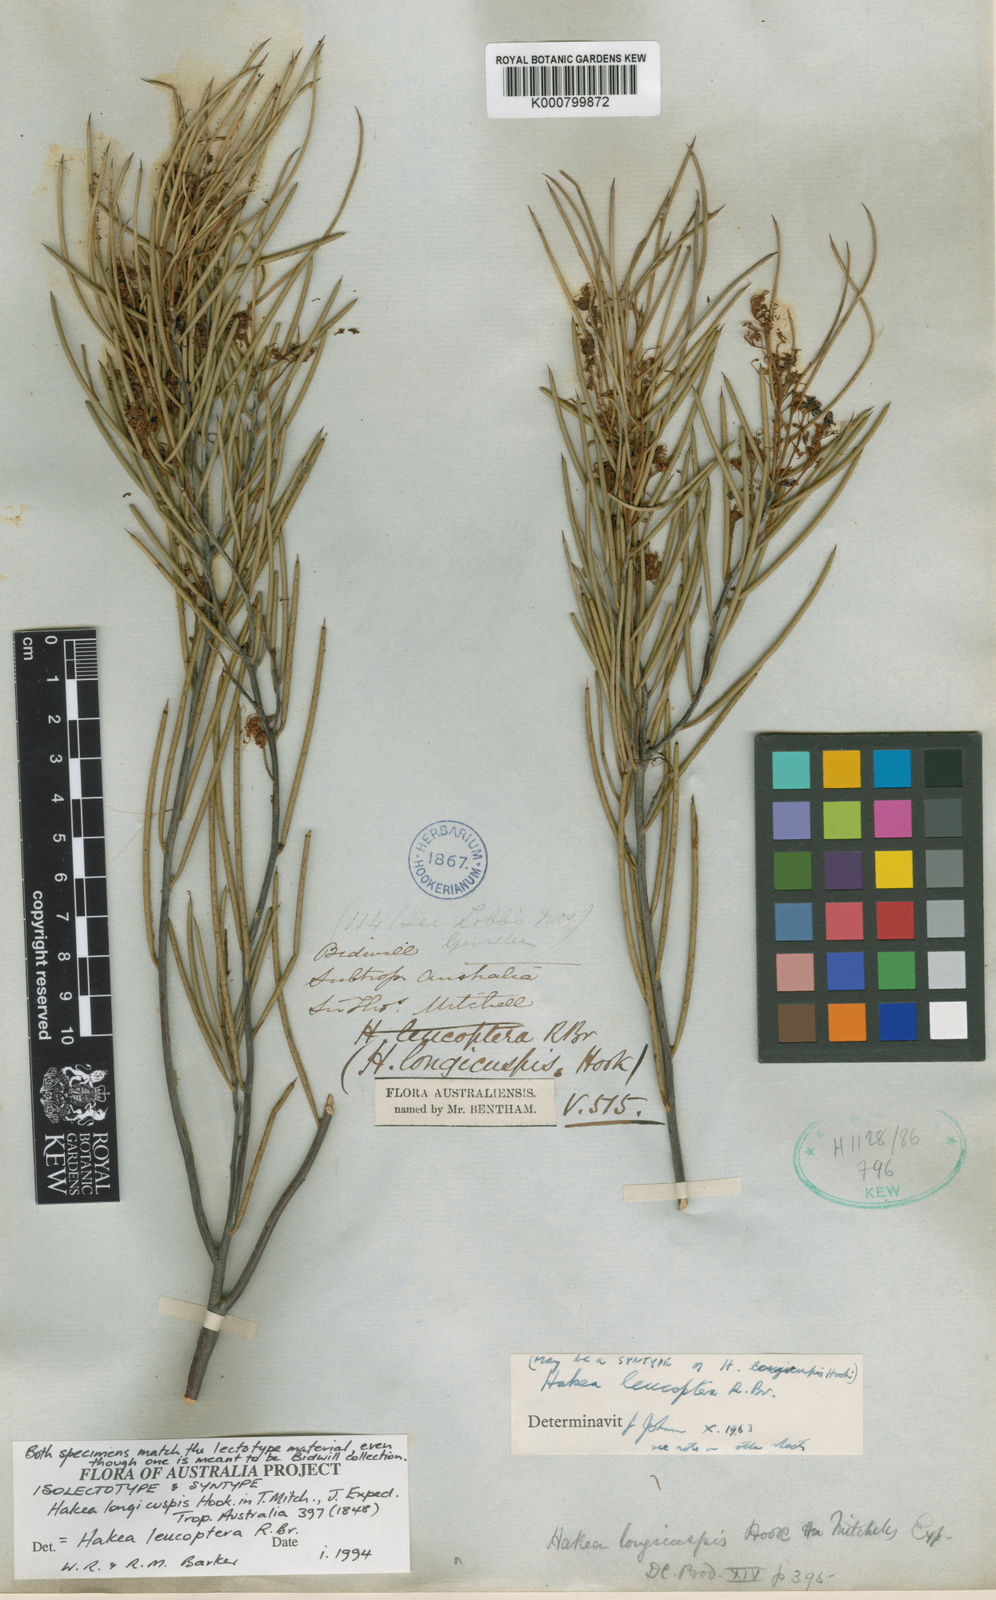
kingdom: Plantae
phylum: Tracheophyta
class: Magnoliopsida
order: Proteales
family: Proteaceae
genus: Hakea
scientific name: Hakea leucoptera
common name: Pinbush
